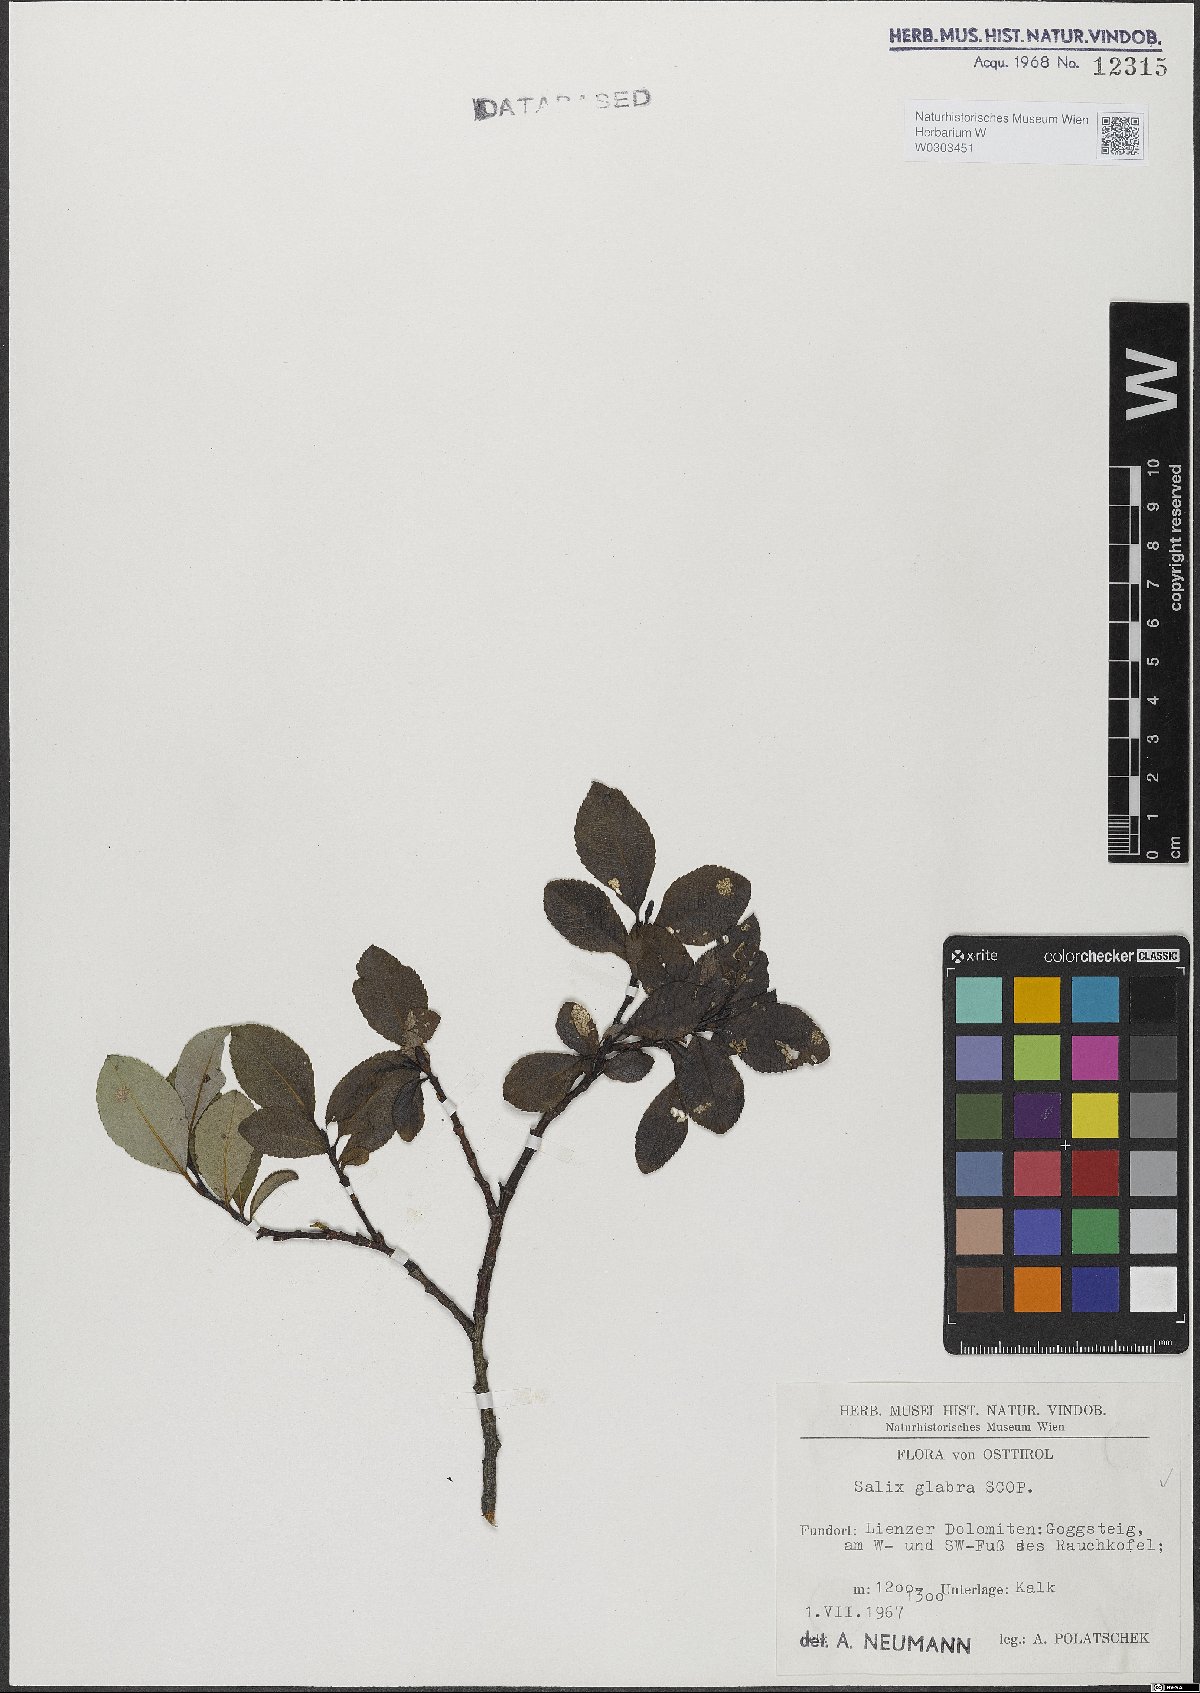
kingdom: Plantae
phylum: Tracheophyta
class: Magnoliopsida
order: Malpighiales
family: Salicaceae
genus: Salix
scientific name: Salix glabra
